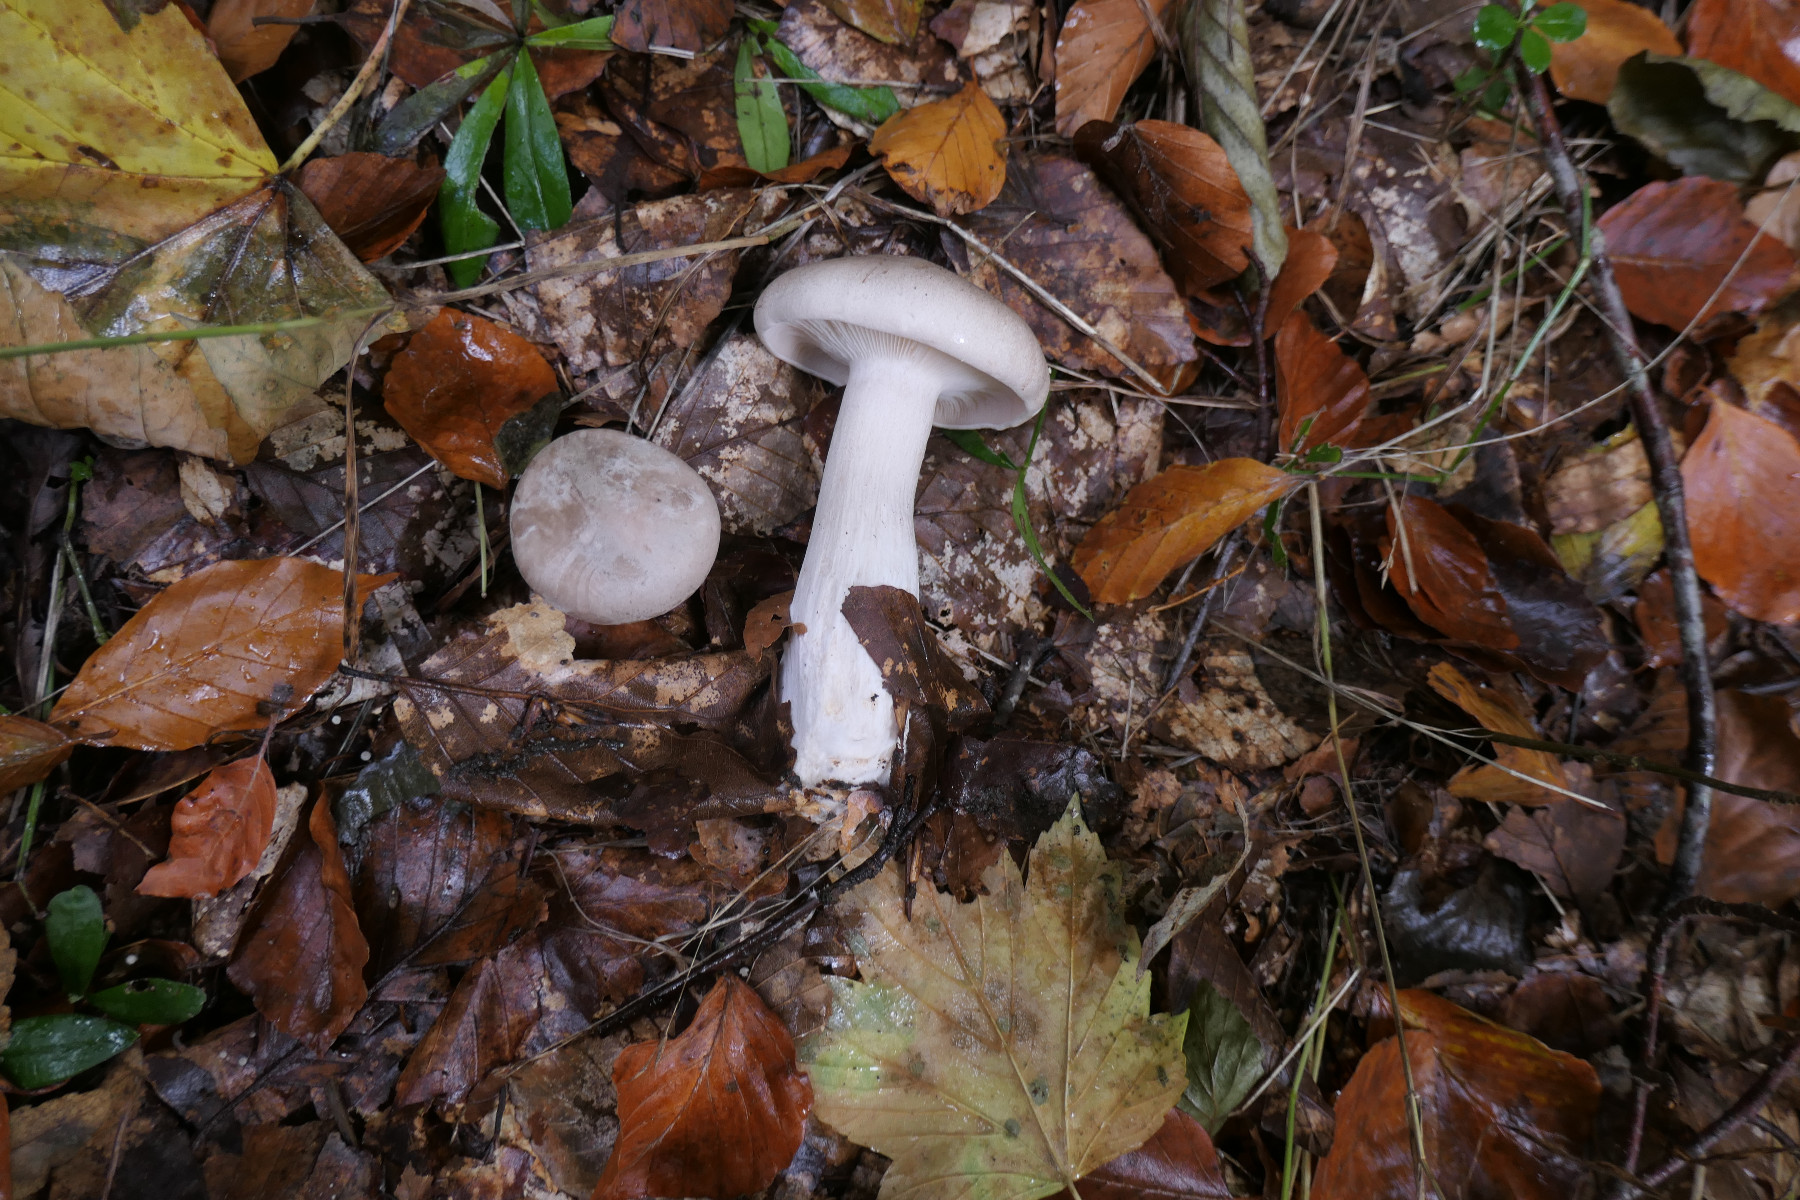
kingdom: Fungi
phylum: Basidiomycota
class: Agaricomycetes
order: Agaricales
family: Tricholomataceae
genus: Clitocybe
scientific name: Clitocybe nebularis
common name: tåge-tragthat
